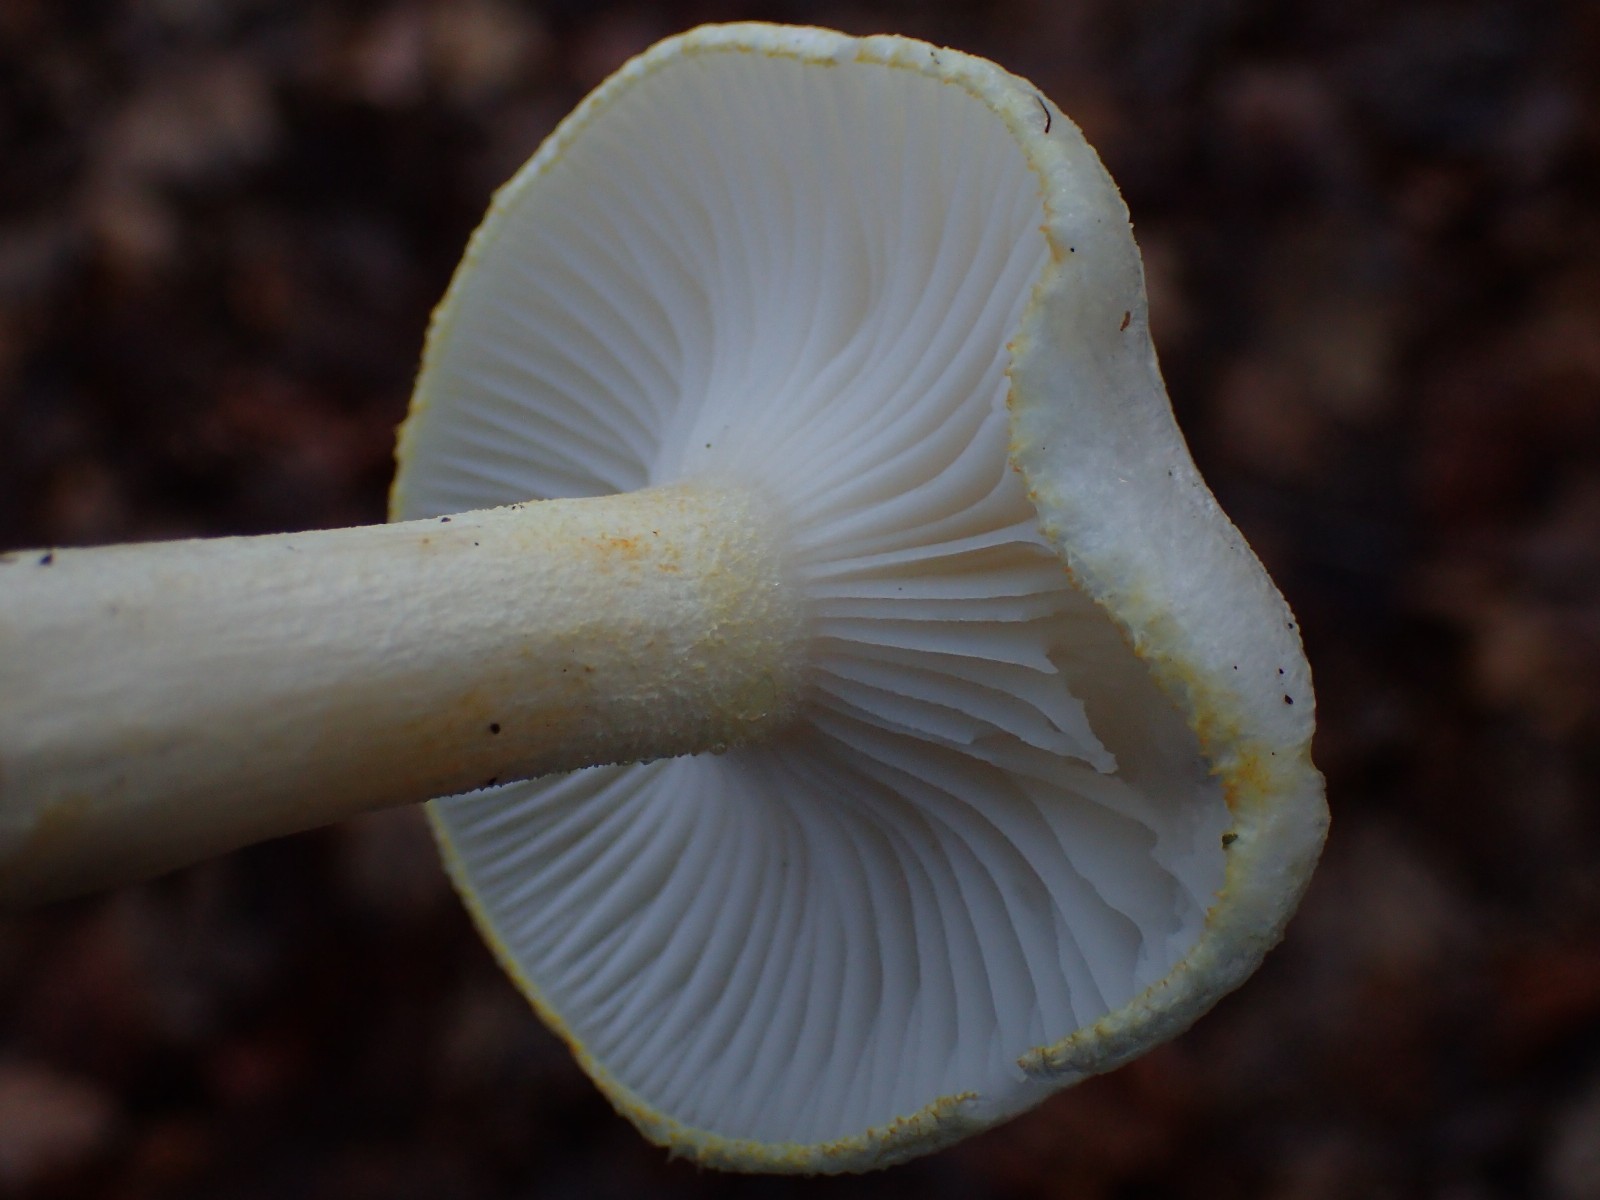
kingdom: Fungi
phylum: Basidiomycota
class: Agaricomycetes
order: Agaricales
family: Hygrophoraceae
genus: Hygrophorus
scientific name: Hygrophorus chrysodon
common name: gulfnugget sneglehat
